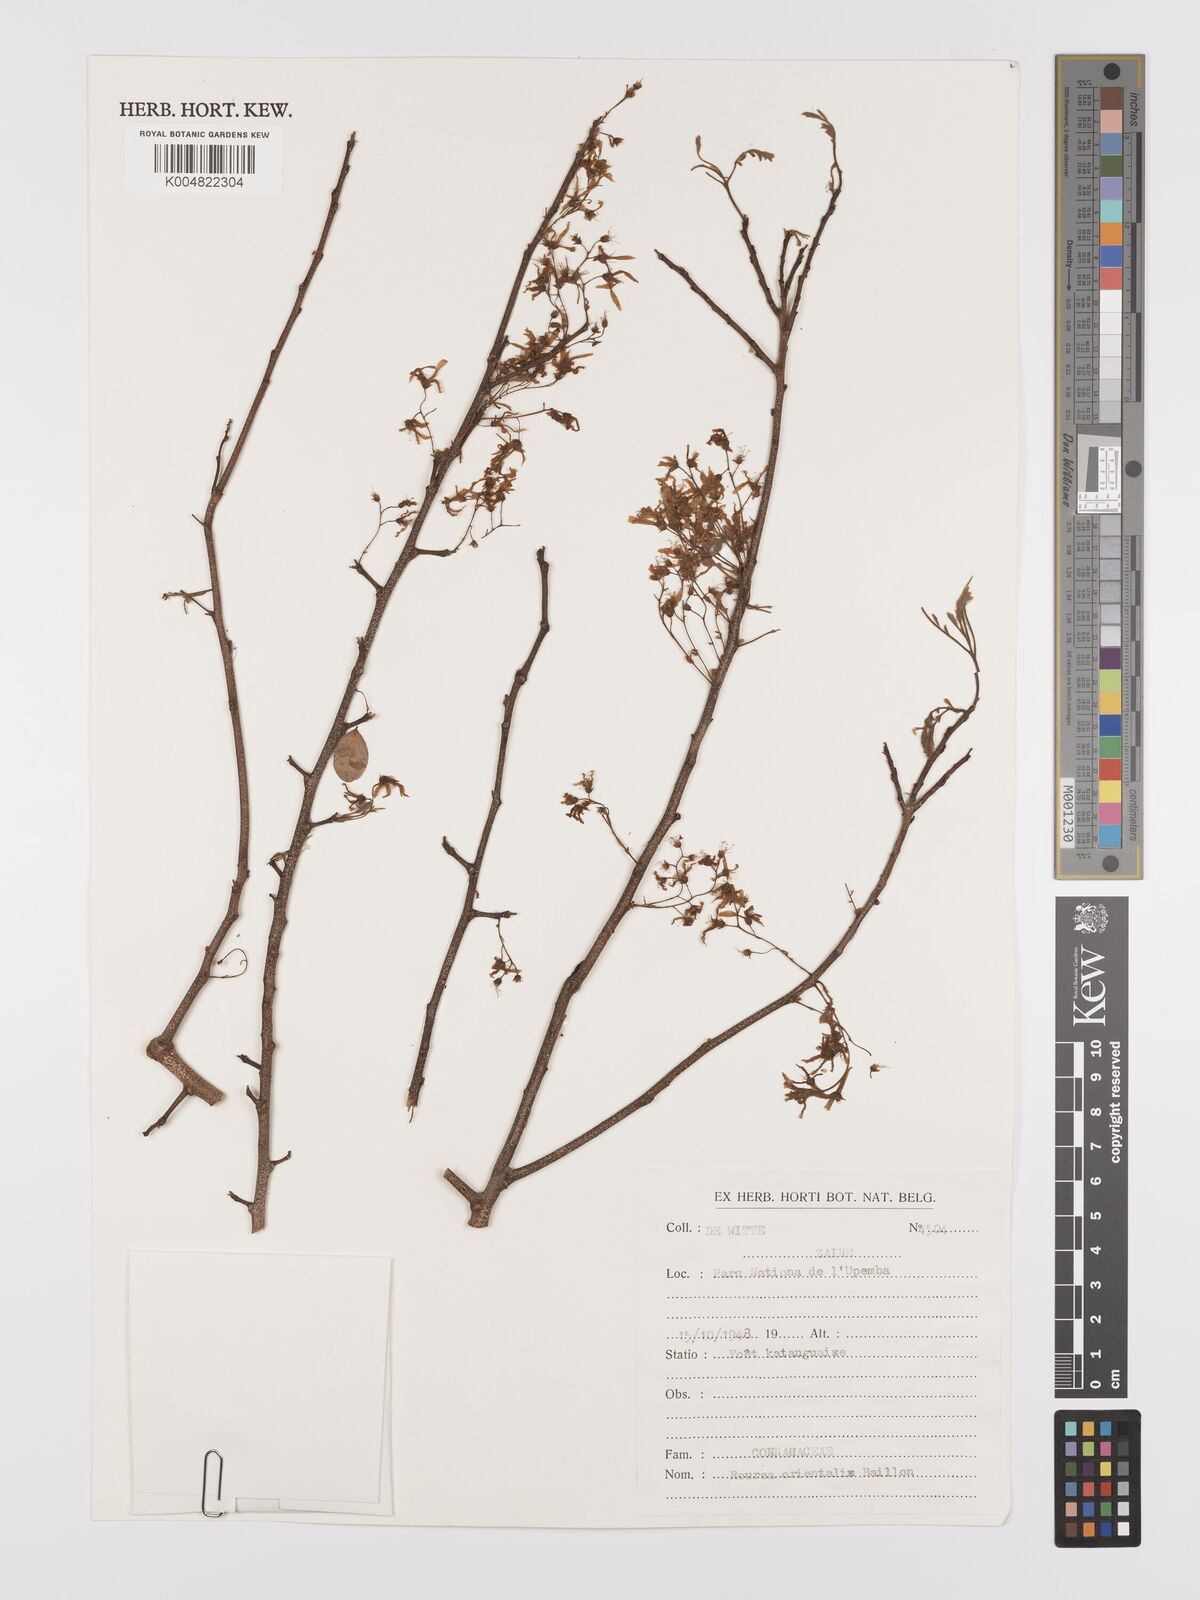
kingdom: Plantae
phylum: Tracheophyta
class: Magnoliopsida
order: Oxalidales
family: Connaraceae
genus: Rourea
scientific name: Rourea orientalis
